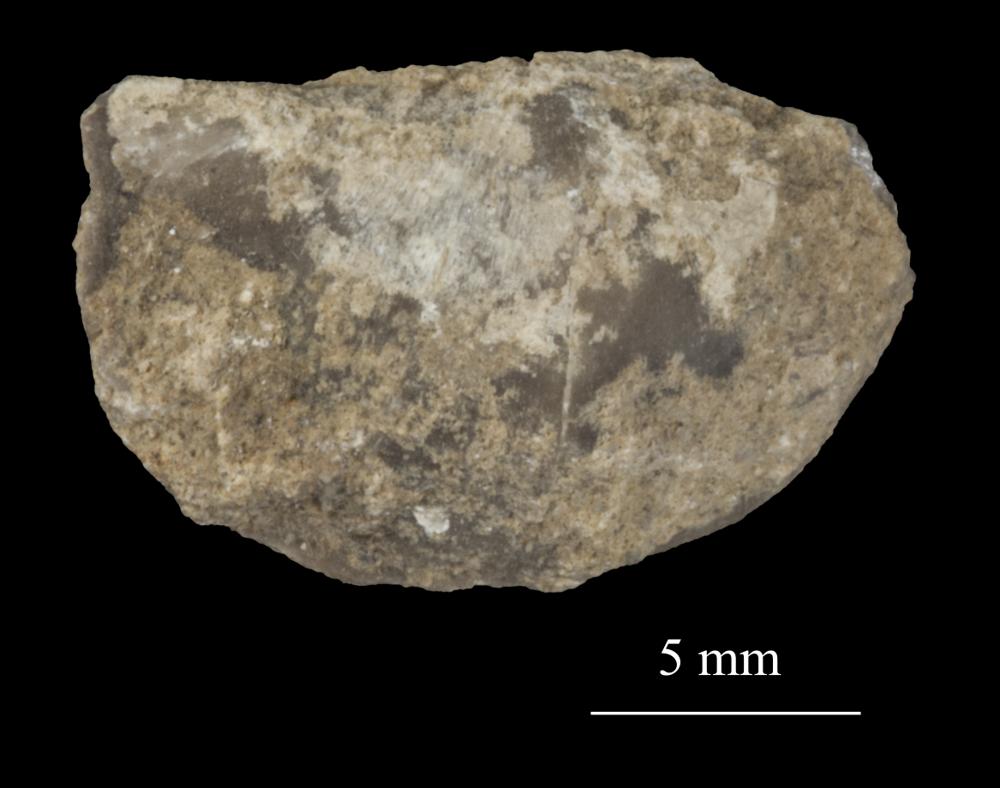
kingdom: Animalia
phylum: Brachiopoda
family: Sowerbyellidae
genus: Sowerbyella
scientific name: Sowerbyella
